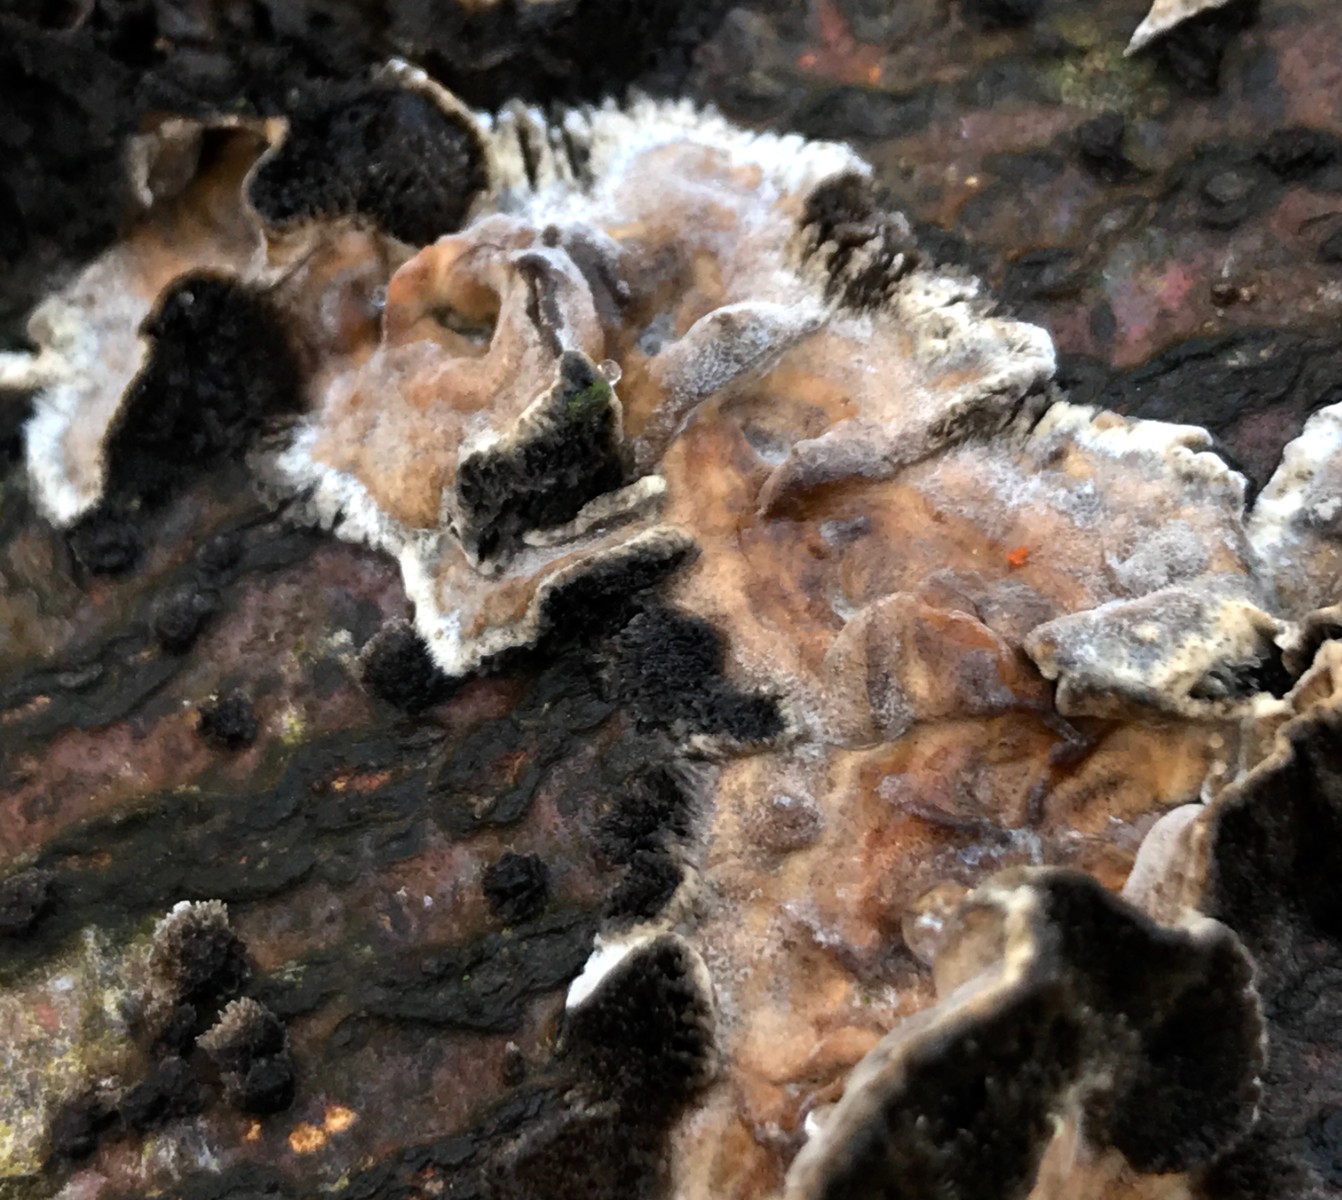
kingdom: Fungi
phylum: Basidiomycota
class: Agaricomycetes
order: Polyporales
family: Phanerochaetaceae
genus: Bjerkandera
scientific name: Bjerkandera adusta
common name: sveden sodporesvamp
